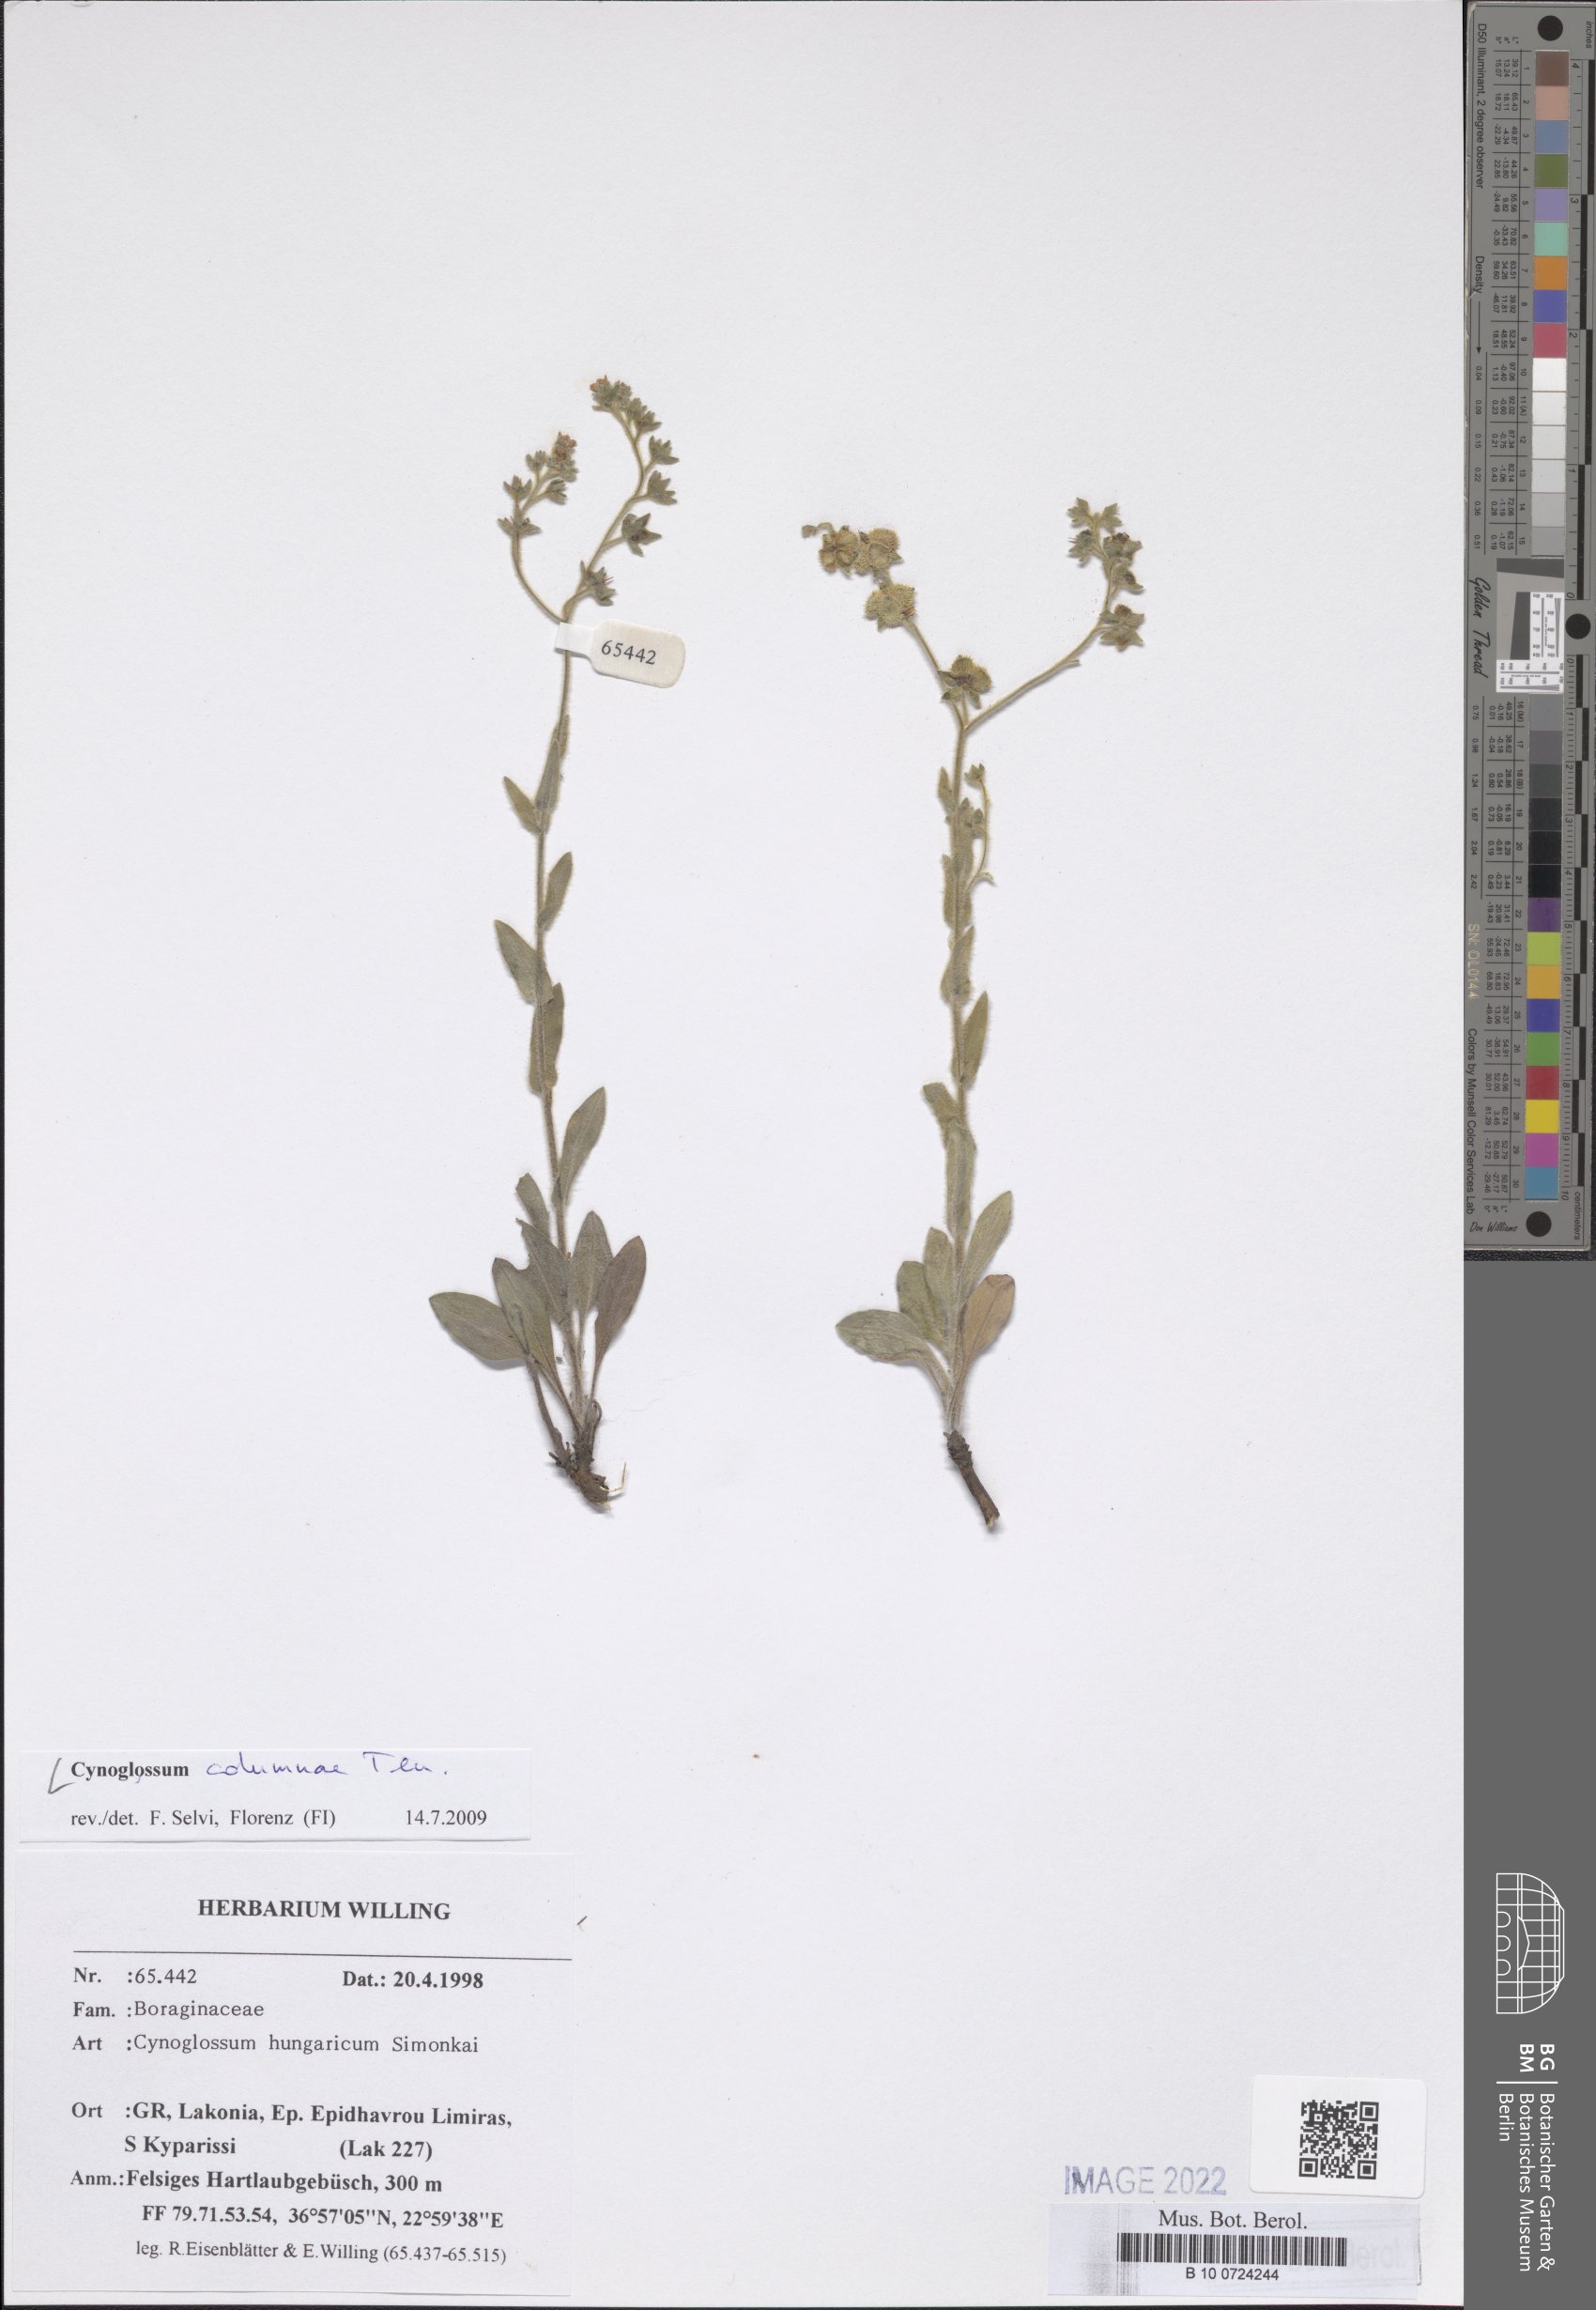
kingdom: Plantae
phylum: Tracheophyta
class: Magnoliopsida
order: Boraginales
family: Boraginaceae
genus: Rindera
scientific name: Rindera columnae
